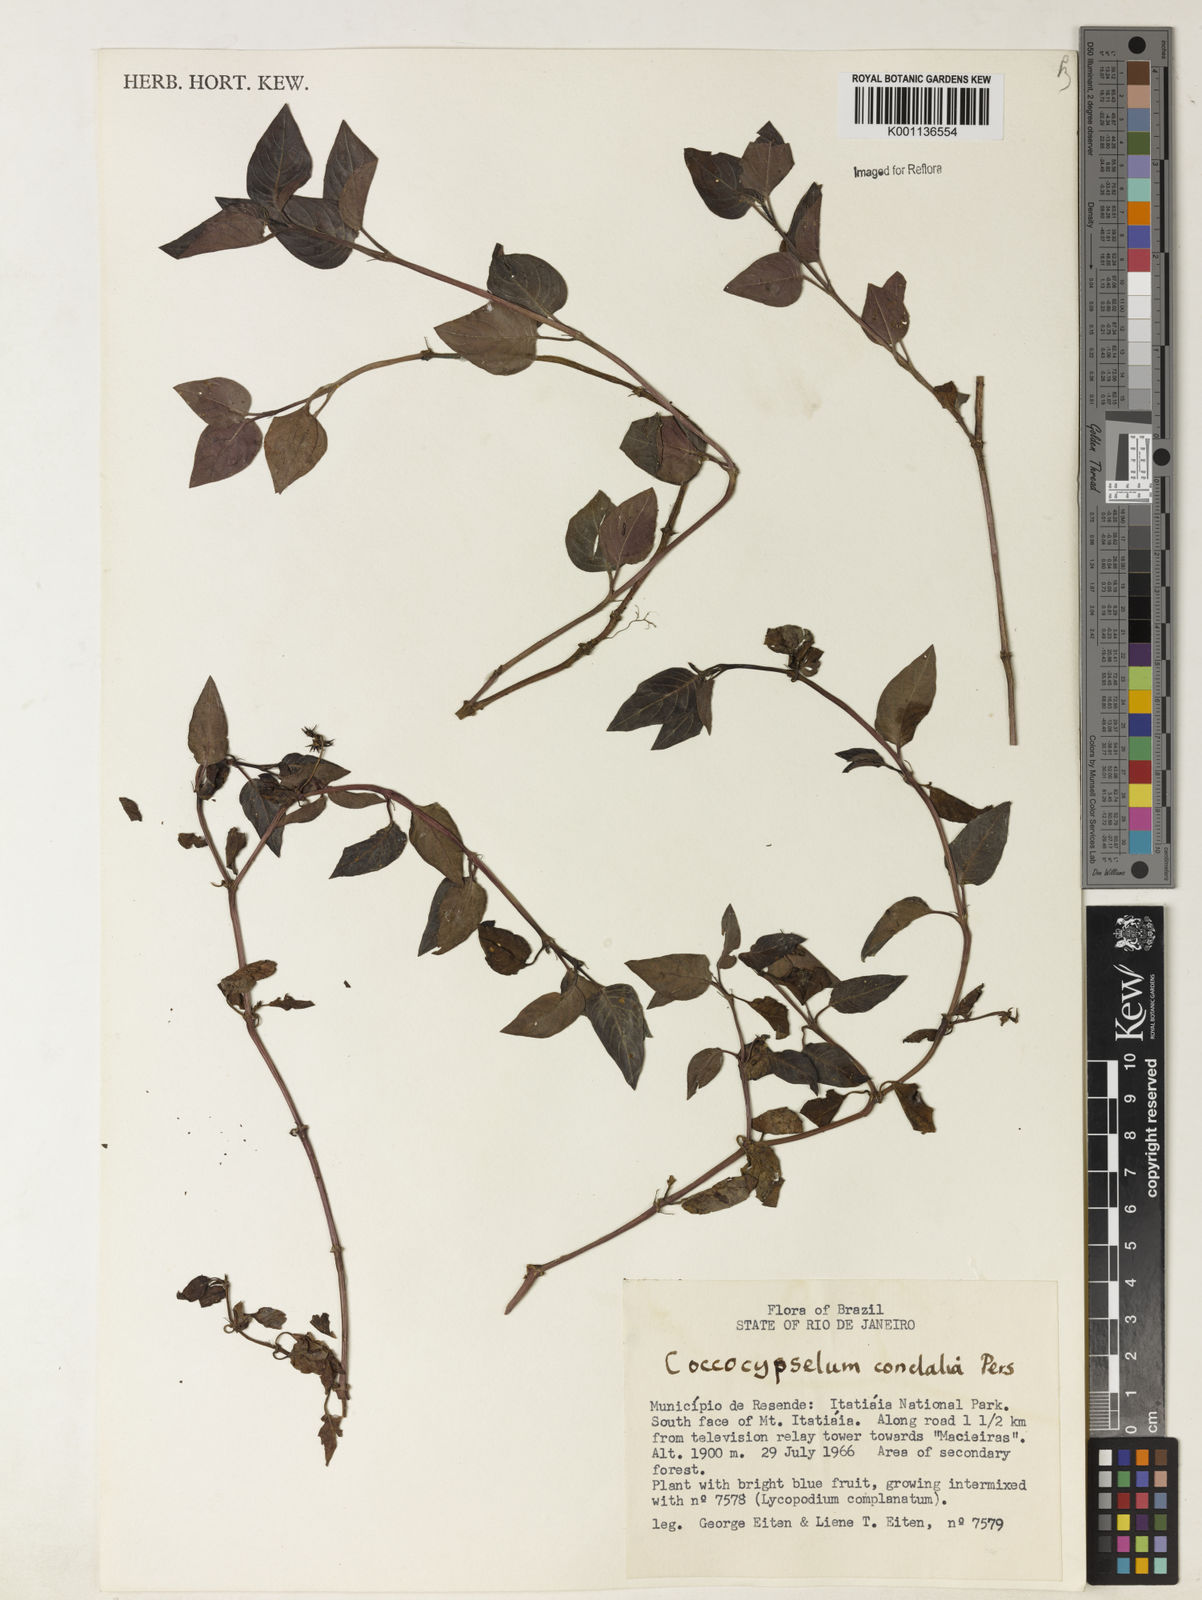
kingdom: Plantae
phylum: Tracheophyta
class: Magnoliopsida
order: Gentianales
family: Rubiaceae
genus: Coccocypselum
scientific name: Coccocypselum condalia
